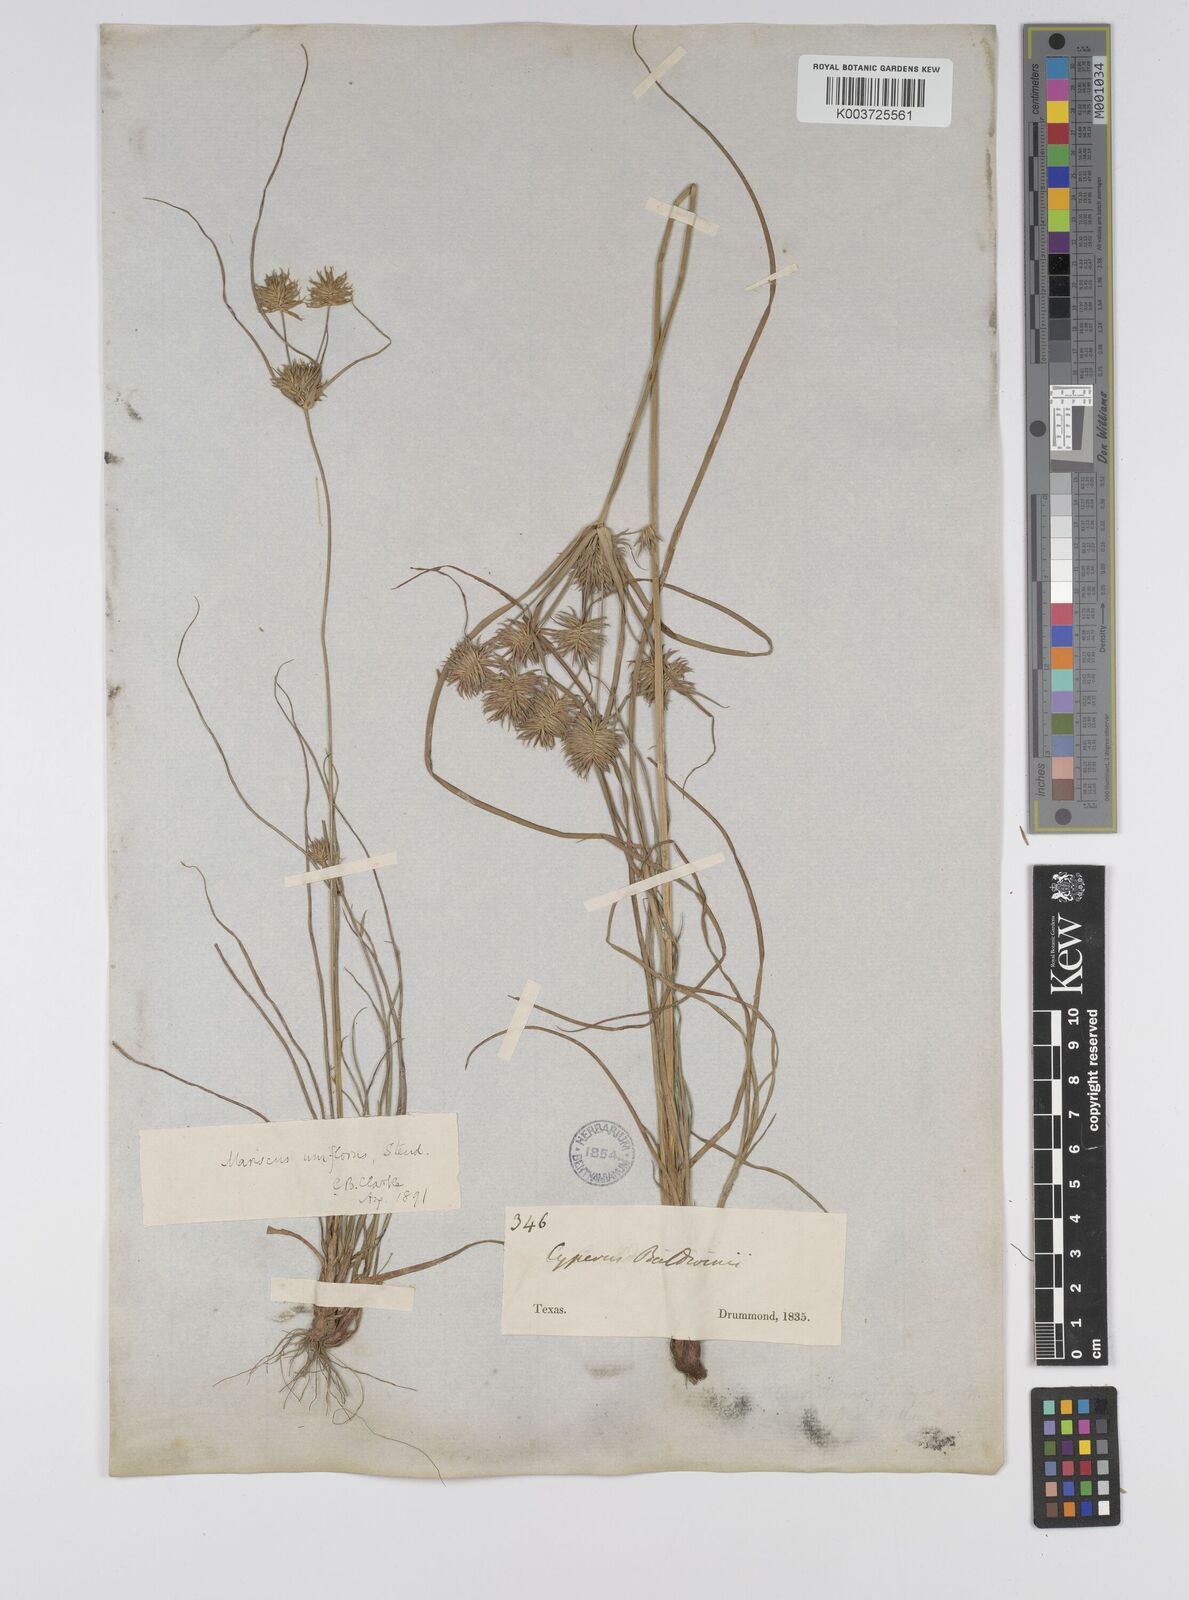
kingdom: Plantae
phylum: Tracheophyta
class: Liliopsida
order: Poales
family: Cyperaceae
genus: Cyperus
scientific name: Cyperus retroflexus
